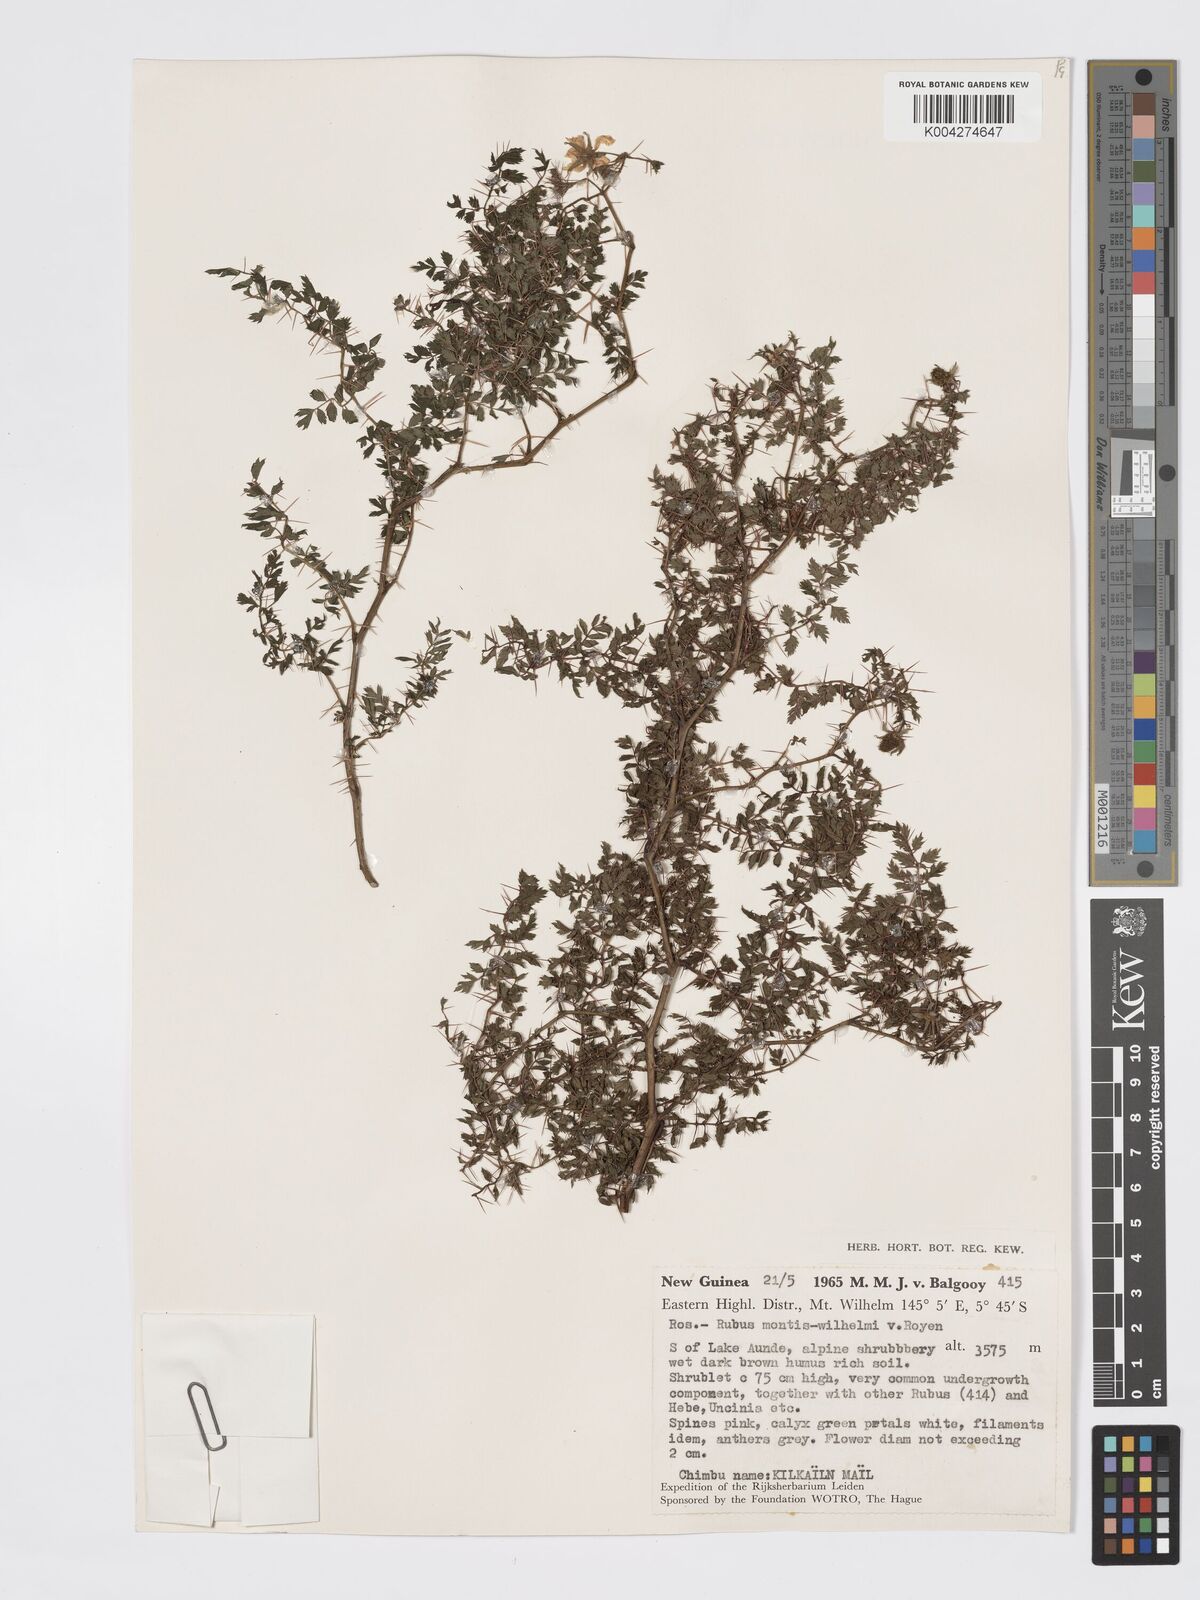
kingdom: Plantae
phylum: Tracheophyta
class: Magnoliopsida
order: Rosales
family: Rosaceae
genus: Rubus
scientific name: Rubus montis-wilhelmii
